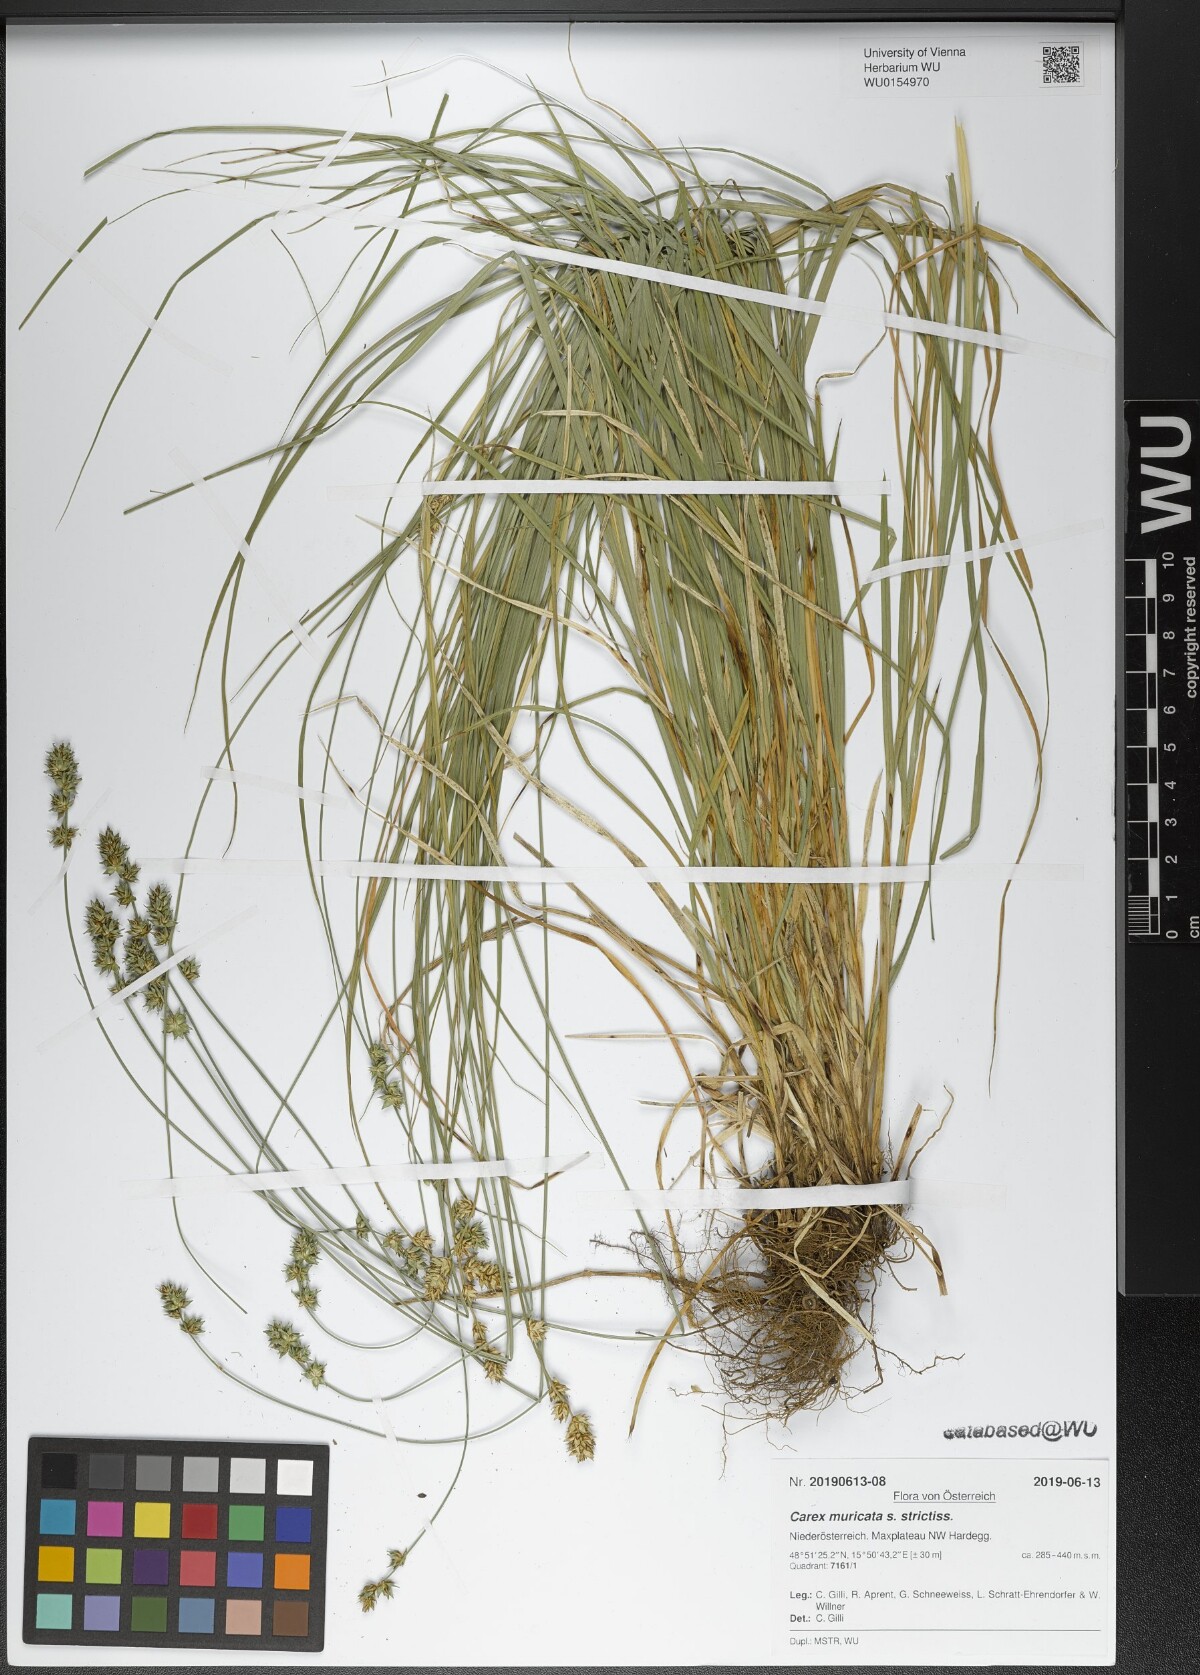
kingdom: Plantae
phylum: Tracheophyta
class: Liliopsida
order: Poales
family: Cyperaceae
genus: Carex
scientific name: Carex muricata
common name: Rough sedge
